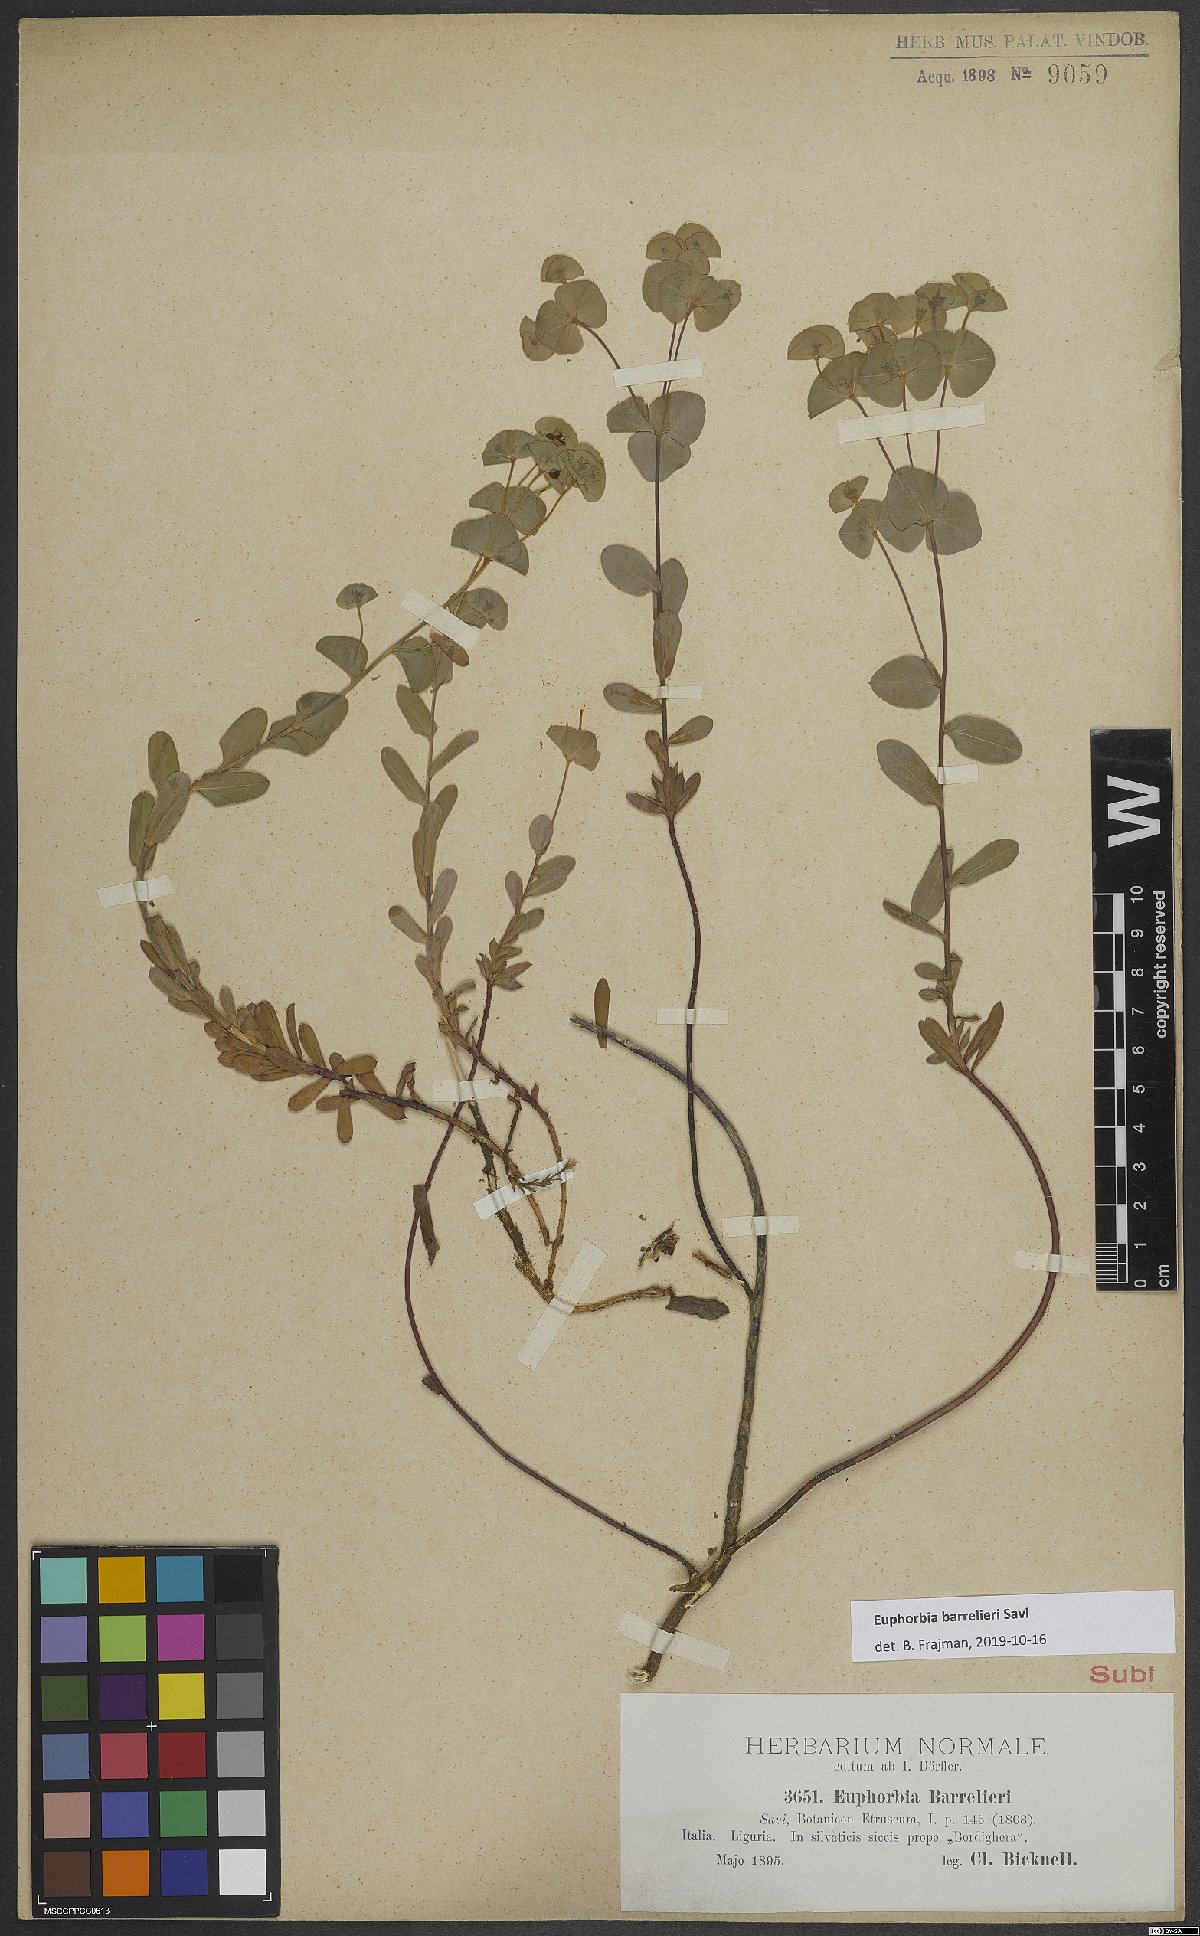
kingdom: Plantae
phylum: Tracheophyta
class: Magnoliopsida
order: Malpighiales
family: Euphorbiaceae
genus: Euphorbia
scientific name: Euphorbia
